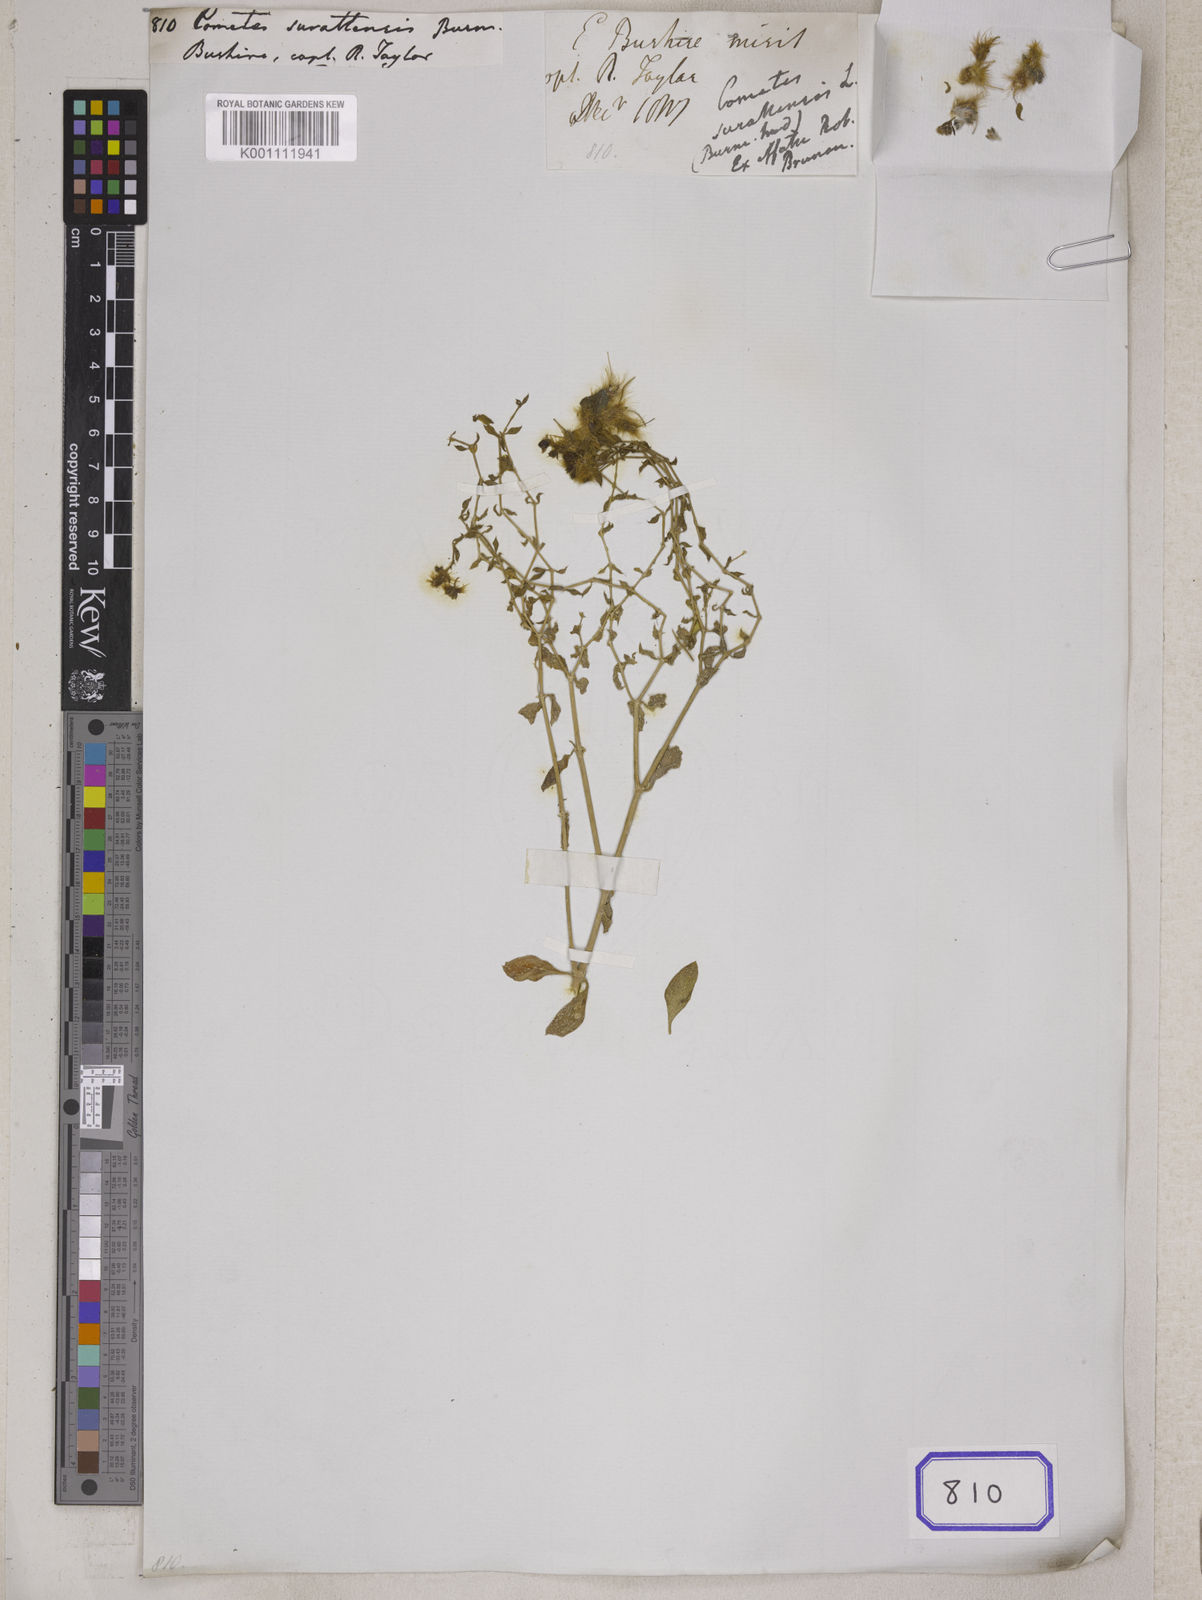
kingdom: Plantae
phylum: Tracheophyta
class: Magnoliopsida
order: Caryophyllales
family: Caryophyllaceae
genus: Cometes
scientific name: Cometes
